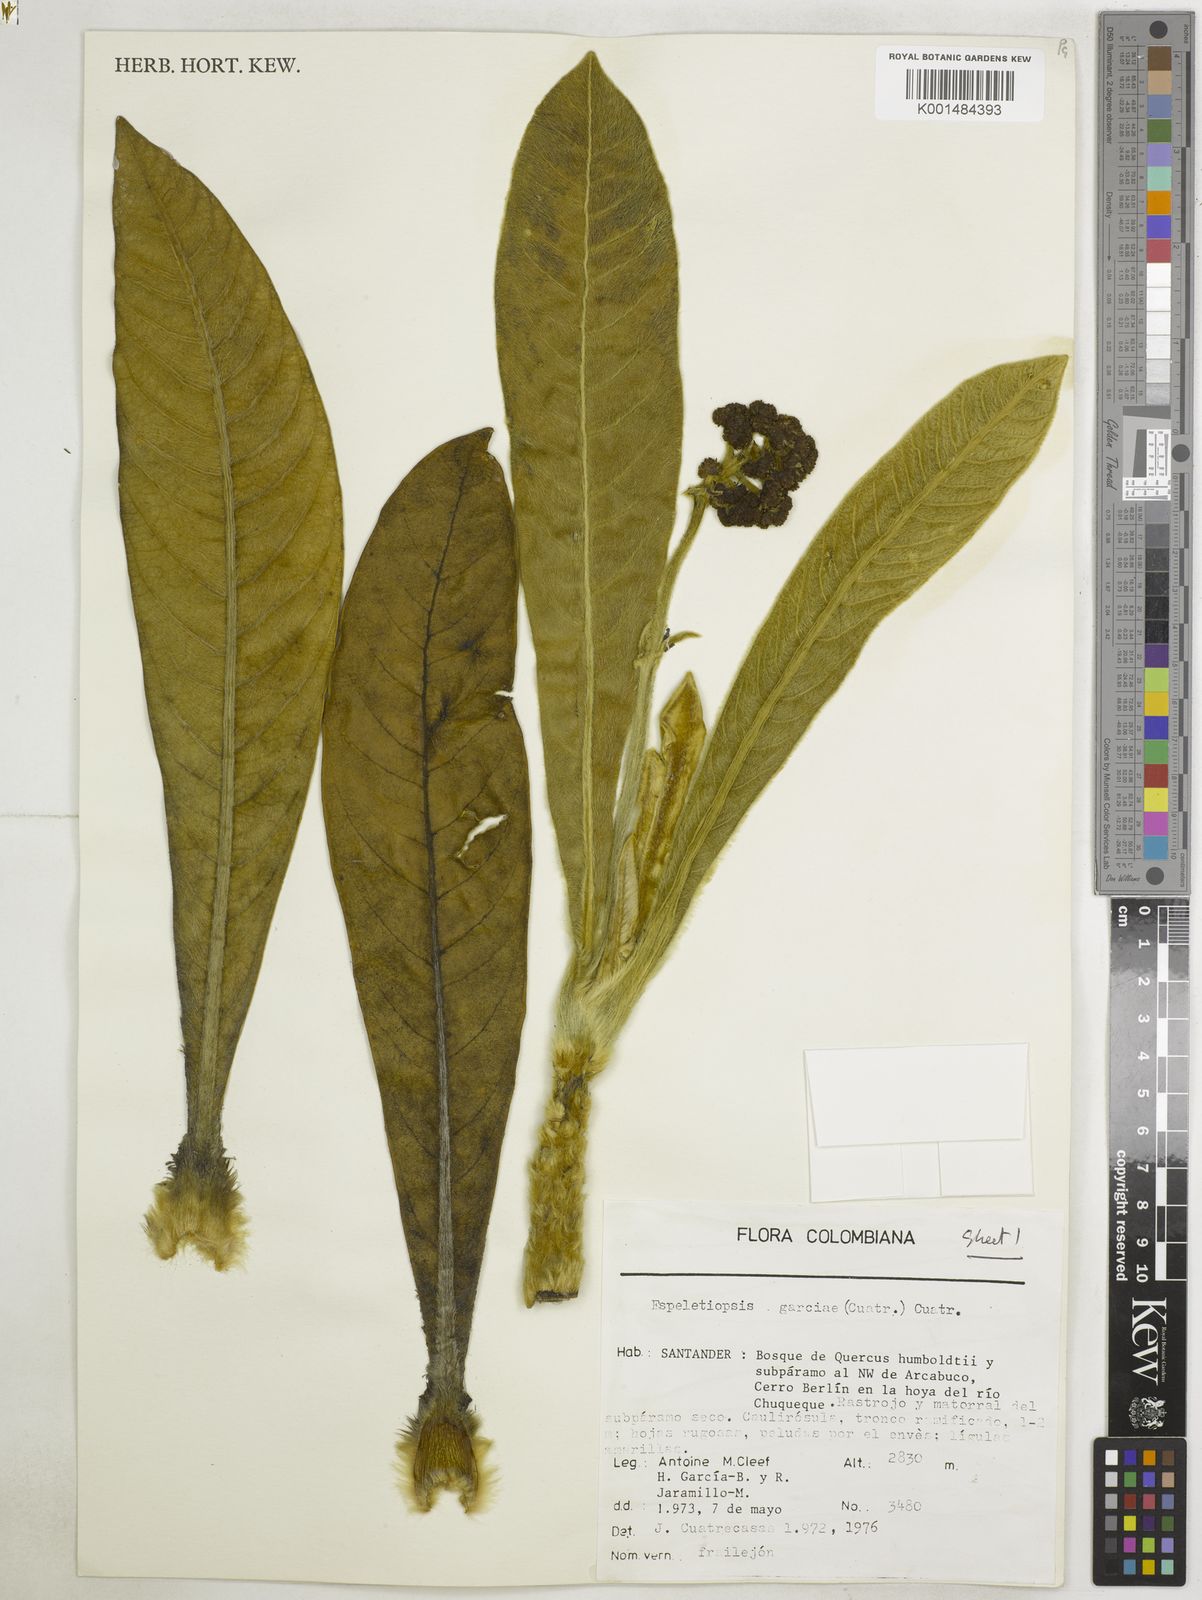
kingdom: Plantae
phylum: Tracheophyta
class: Magnoliopsida
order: Asterales
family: Asteraceae
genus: Espeletia
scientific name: Espeletia garciae
